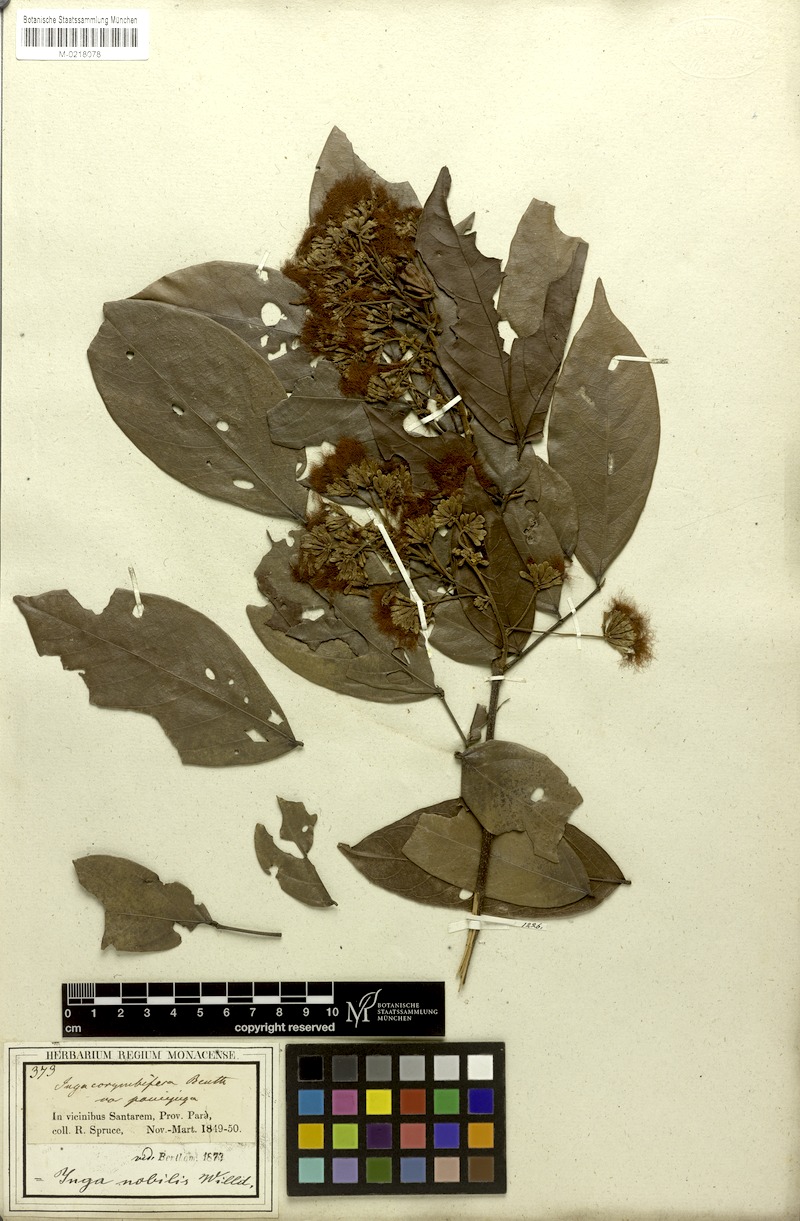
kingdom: Plantae
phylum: Tracheophyta
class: Magnoliopsida
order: Fabales
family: Fabaceae
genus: Inga
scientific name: Inga nobilis
